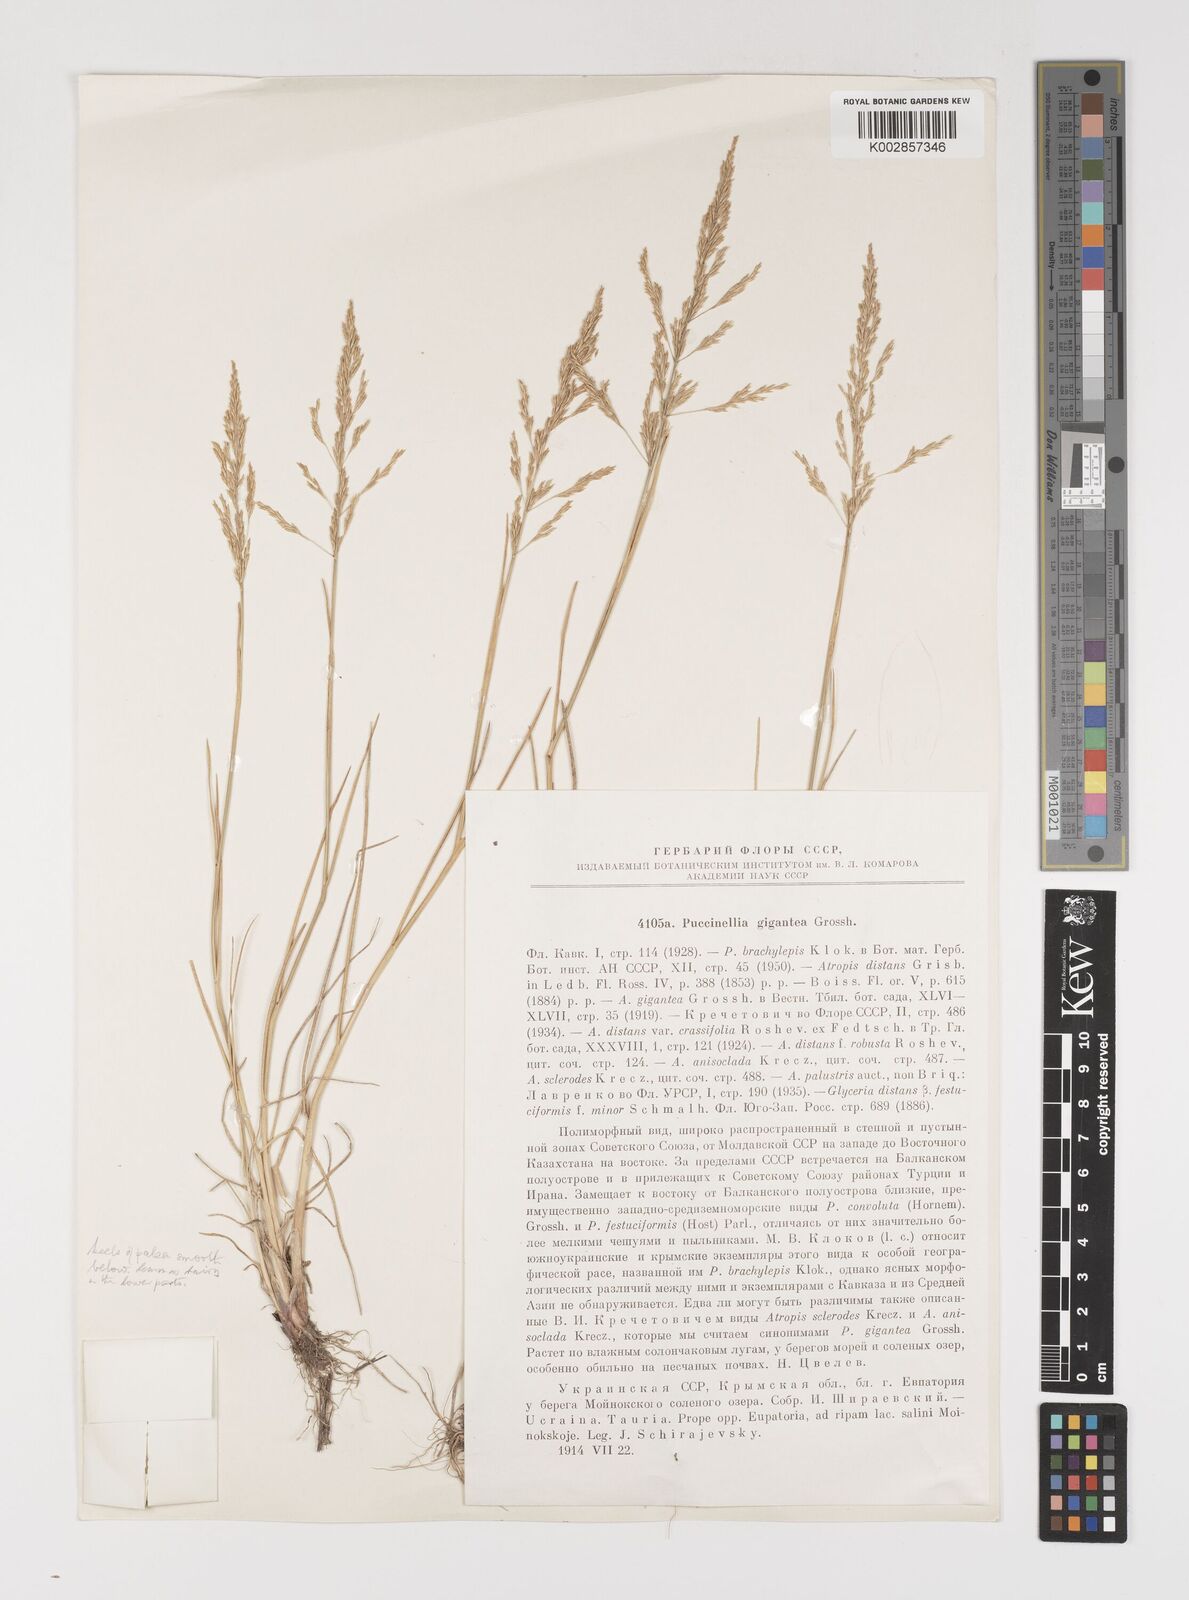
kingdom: Plantae
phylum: Tracheophyta
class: Liliopsida
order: Poales
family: Poaceae
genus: Puccinellia
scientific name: Puccinellia gigantea
